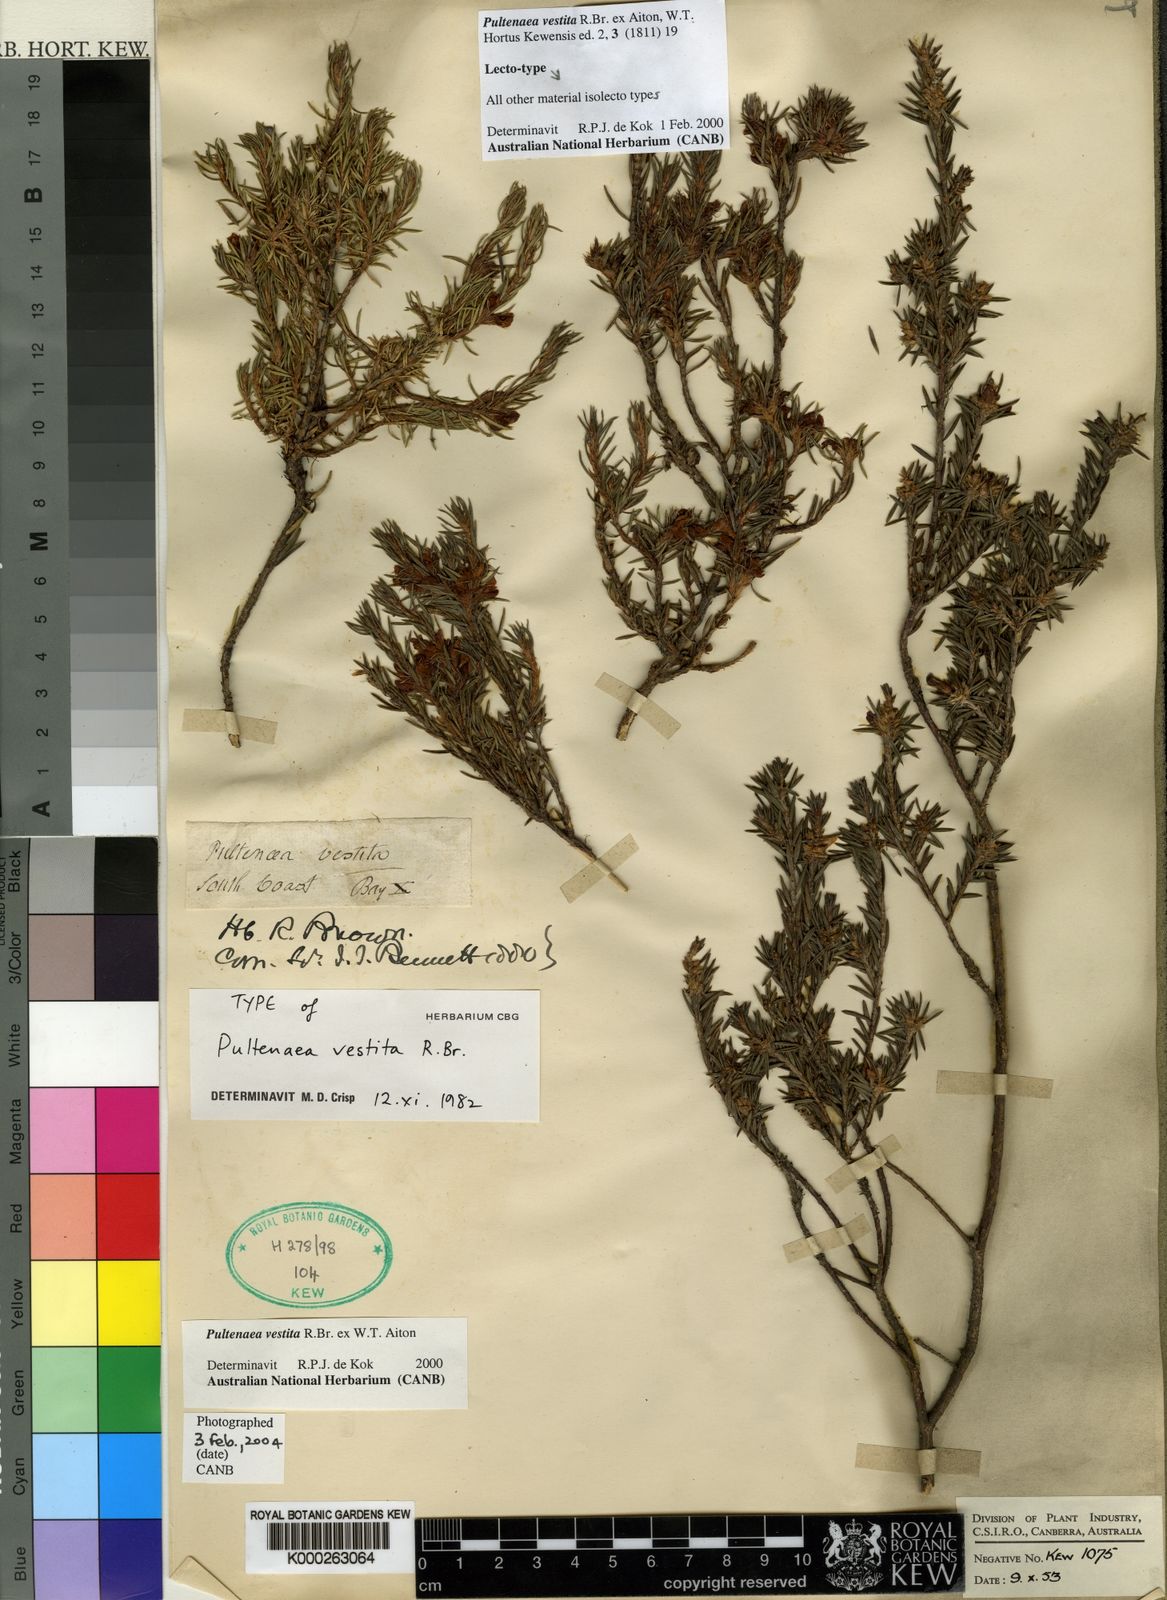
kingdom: Plantae
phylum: Tracheophyta
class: Magnoliopsida
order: Fabales
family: Fabaceae
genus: Pultenaea
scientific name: Pultenaea vestita
